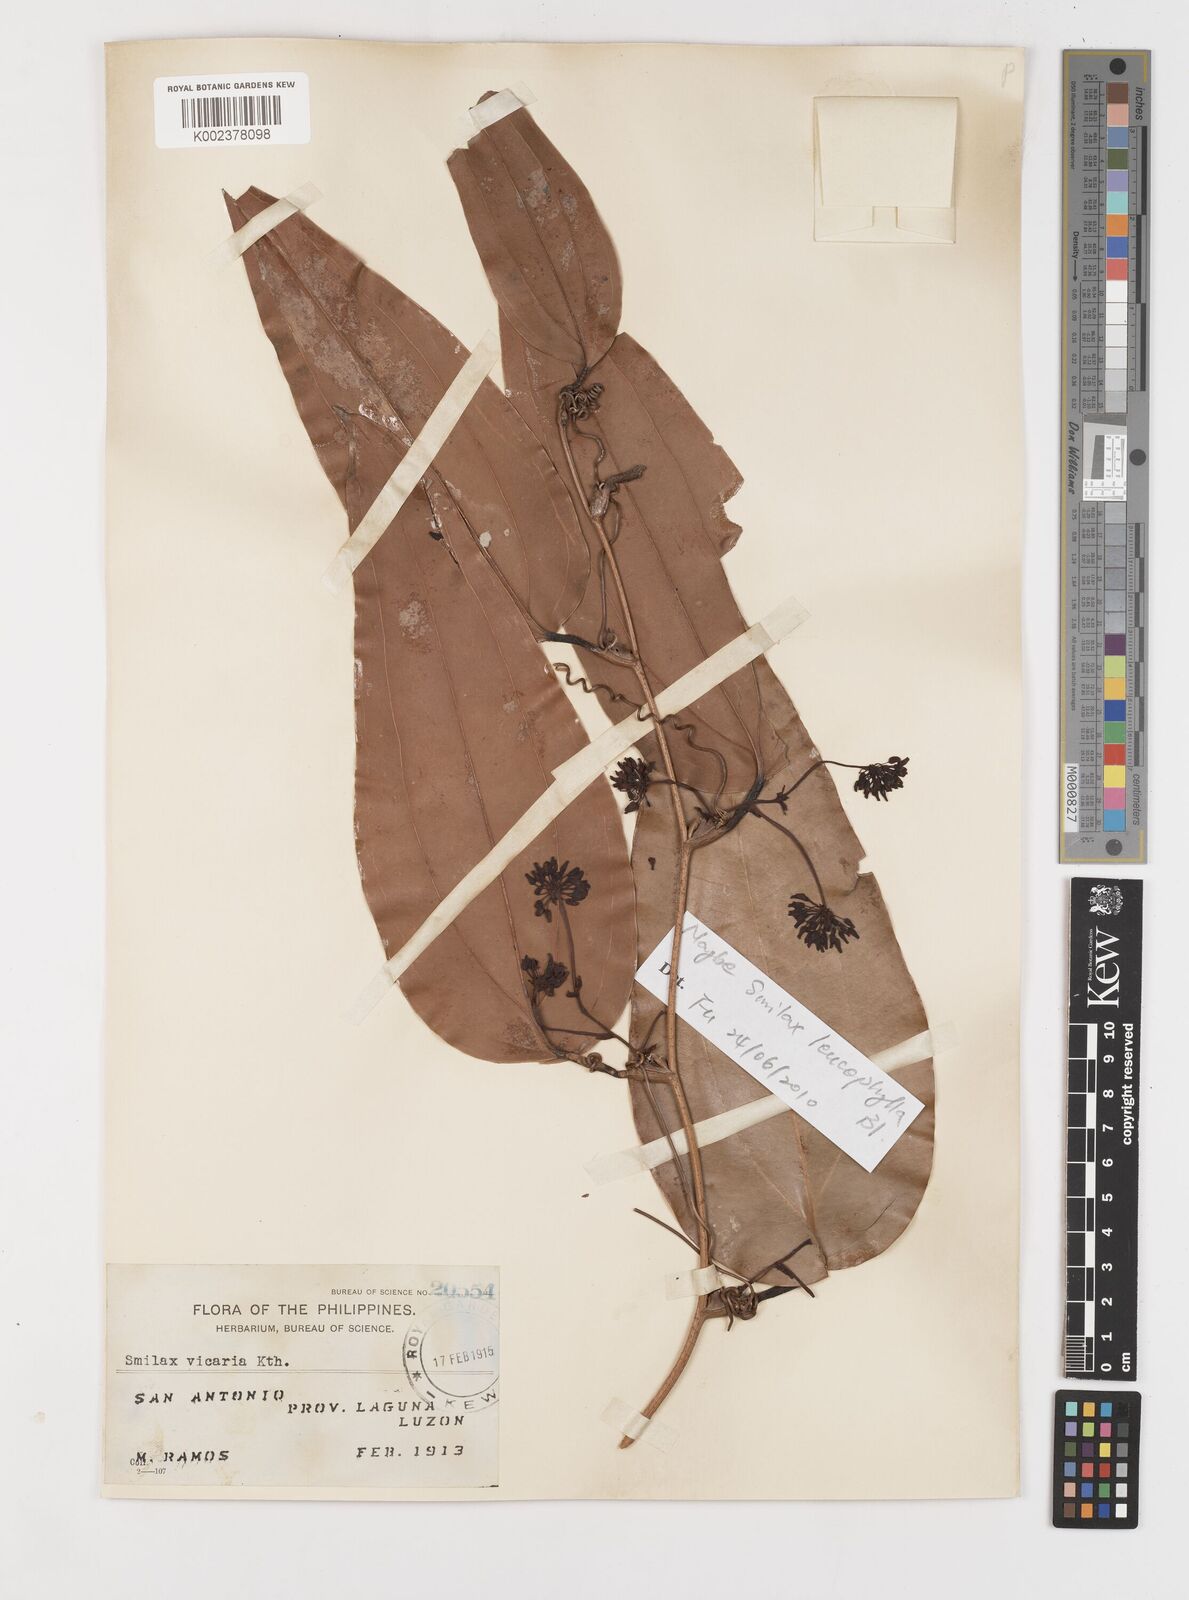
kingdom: Plantae
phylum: Tracheophyta
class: Liliopsida
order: Liliales
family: Smilacaceae
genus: Smilax
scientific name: Smilax leucophylla
